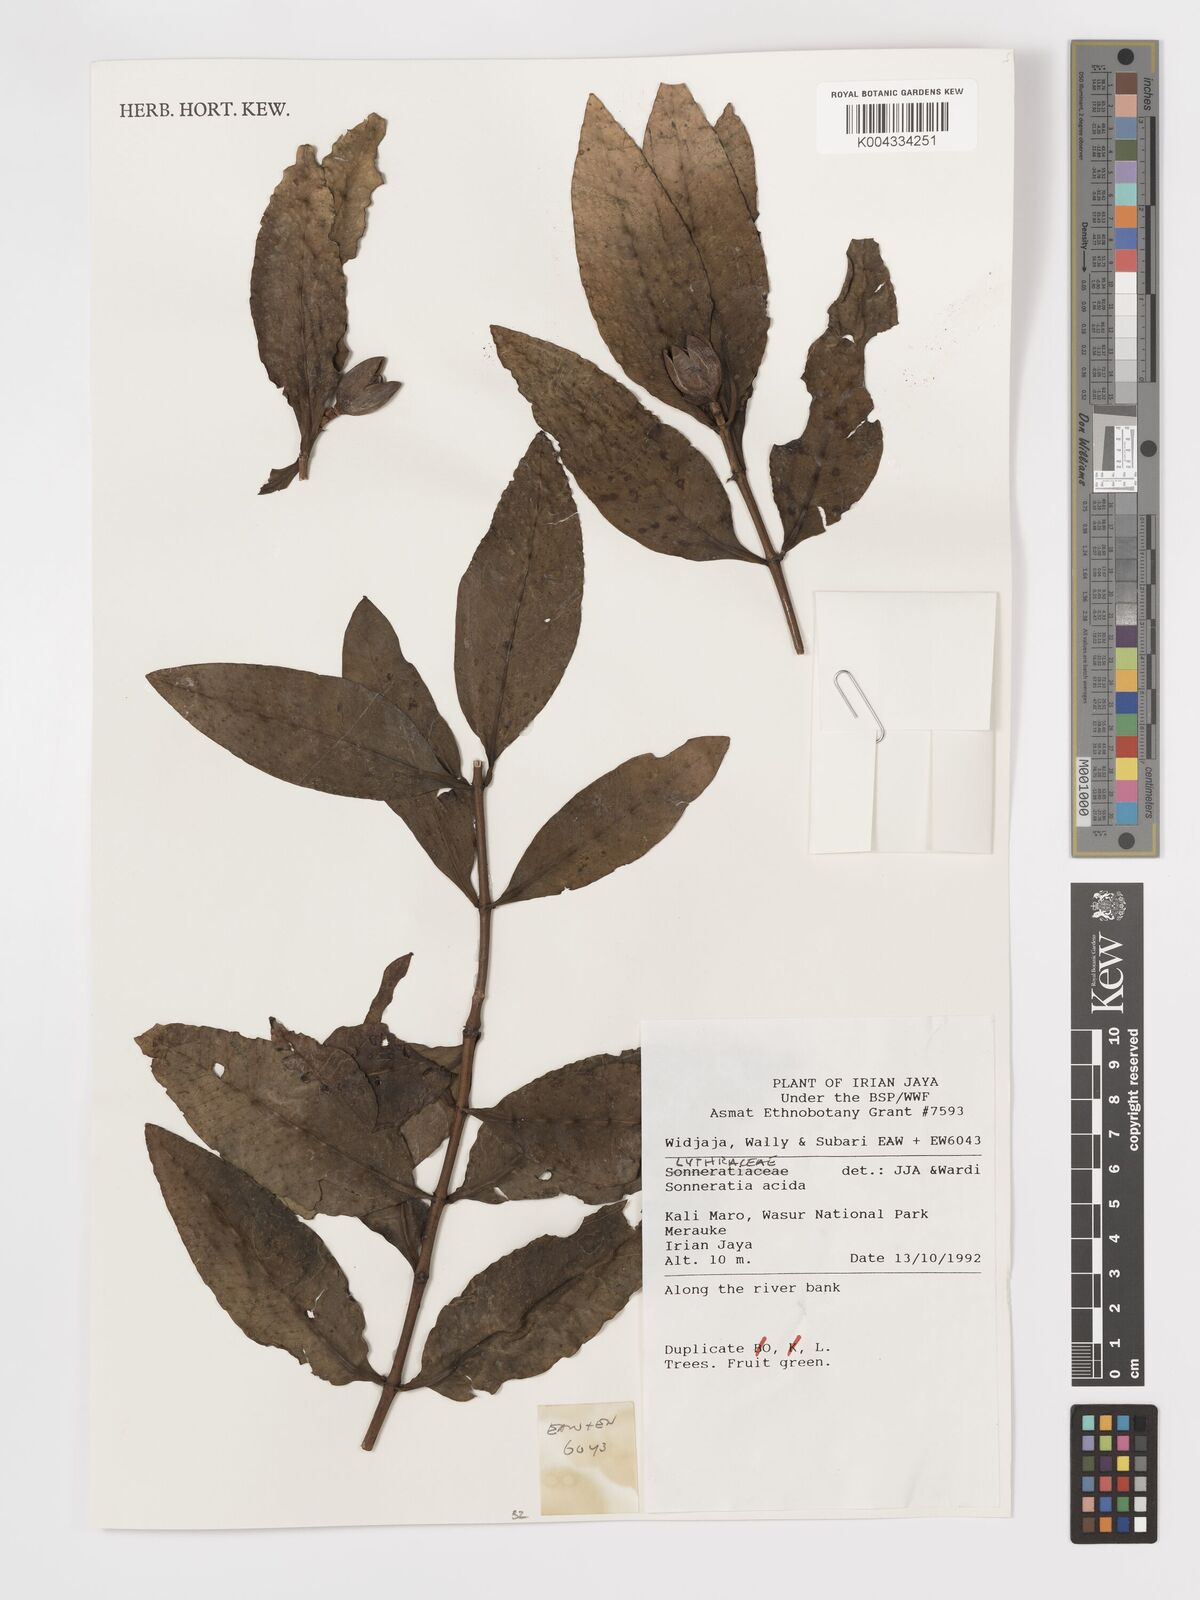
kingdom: Plantae
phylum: Tracheophyta
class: Magnoliopsida
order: Myrtales
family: Lythraceae
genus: Sonneratia
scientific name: Sonneratia
